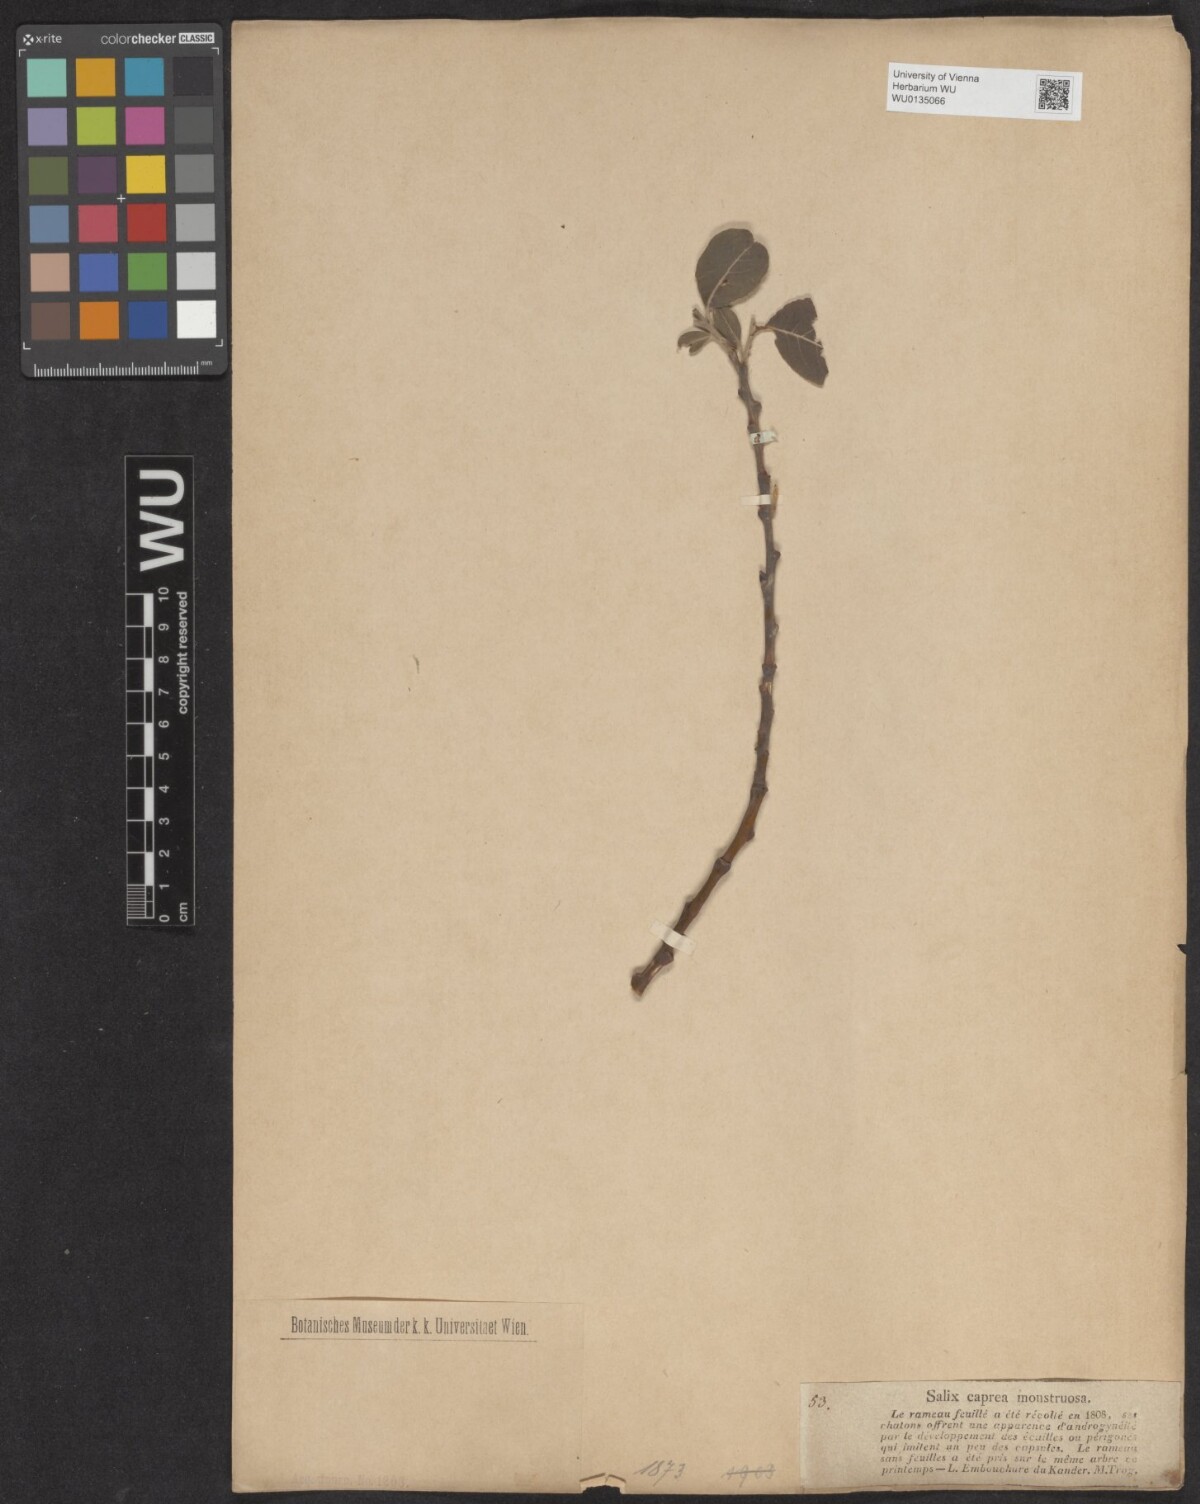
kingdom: Plantae
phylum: Tracheophyta
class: Magnoliopsida
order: Malpighiales
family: Salicaceae
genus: Salix
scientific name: Salix caprea
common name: Goat willow
